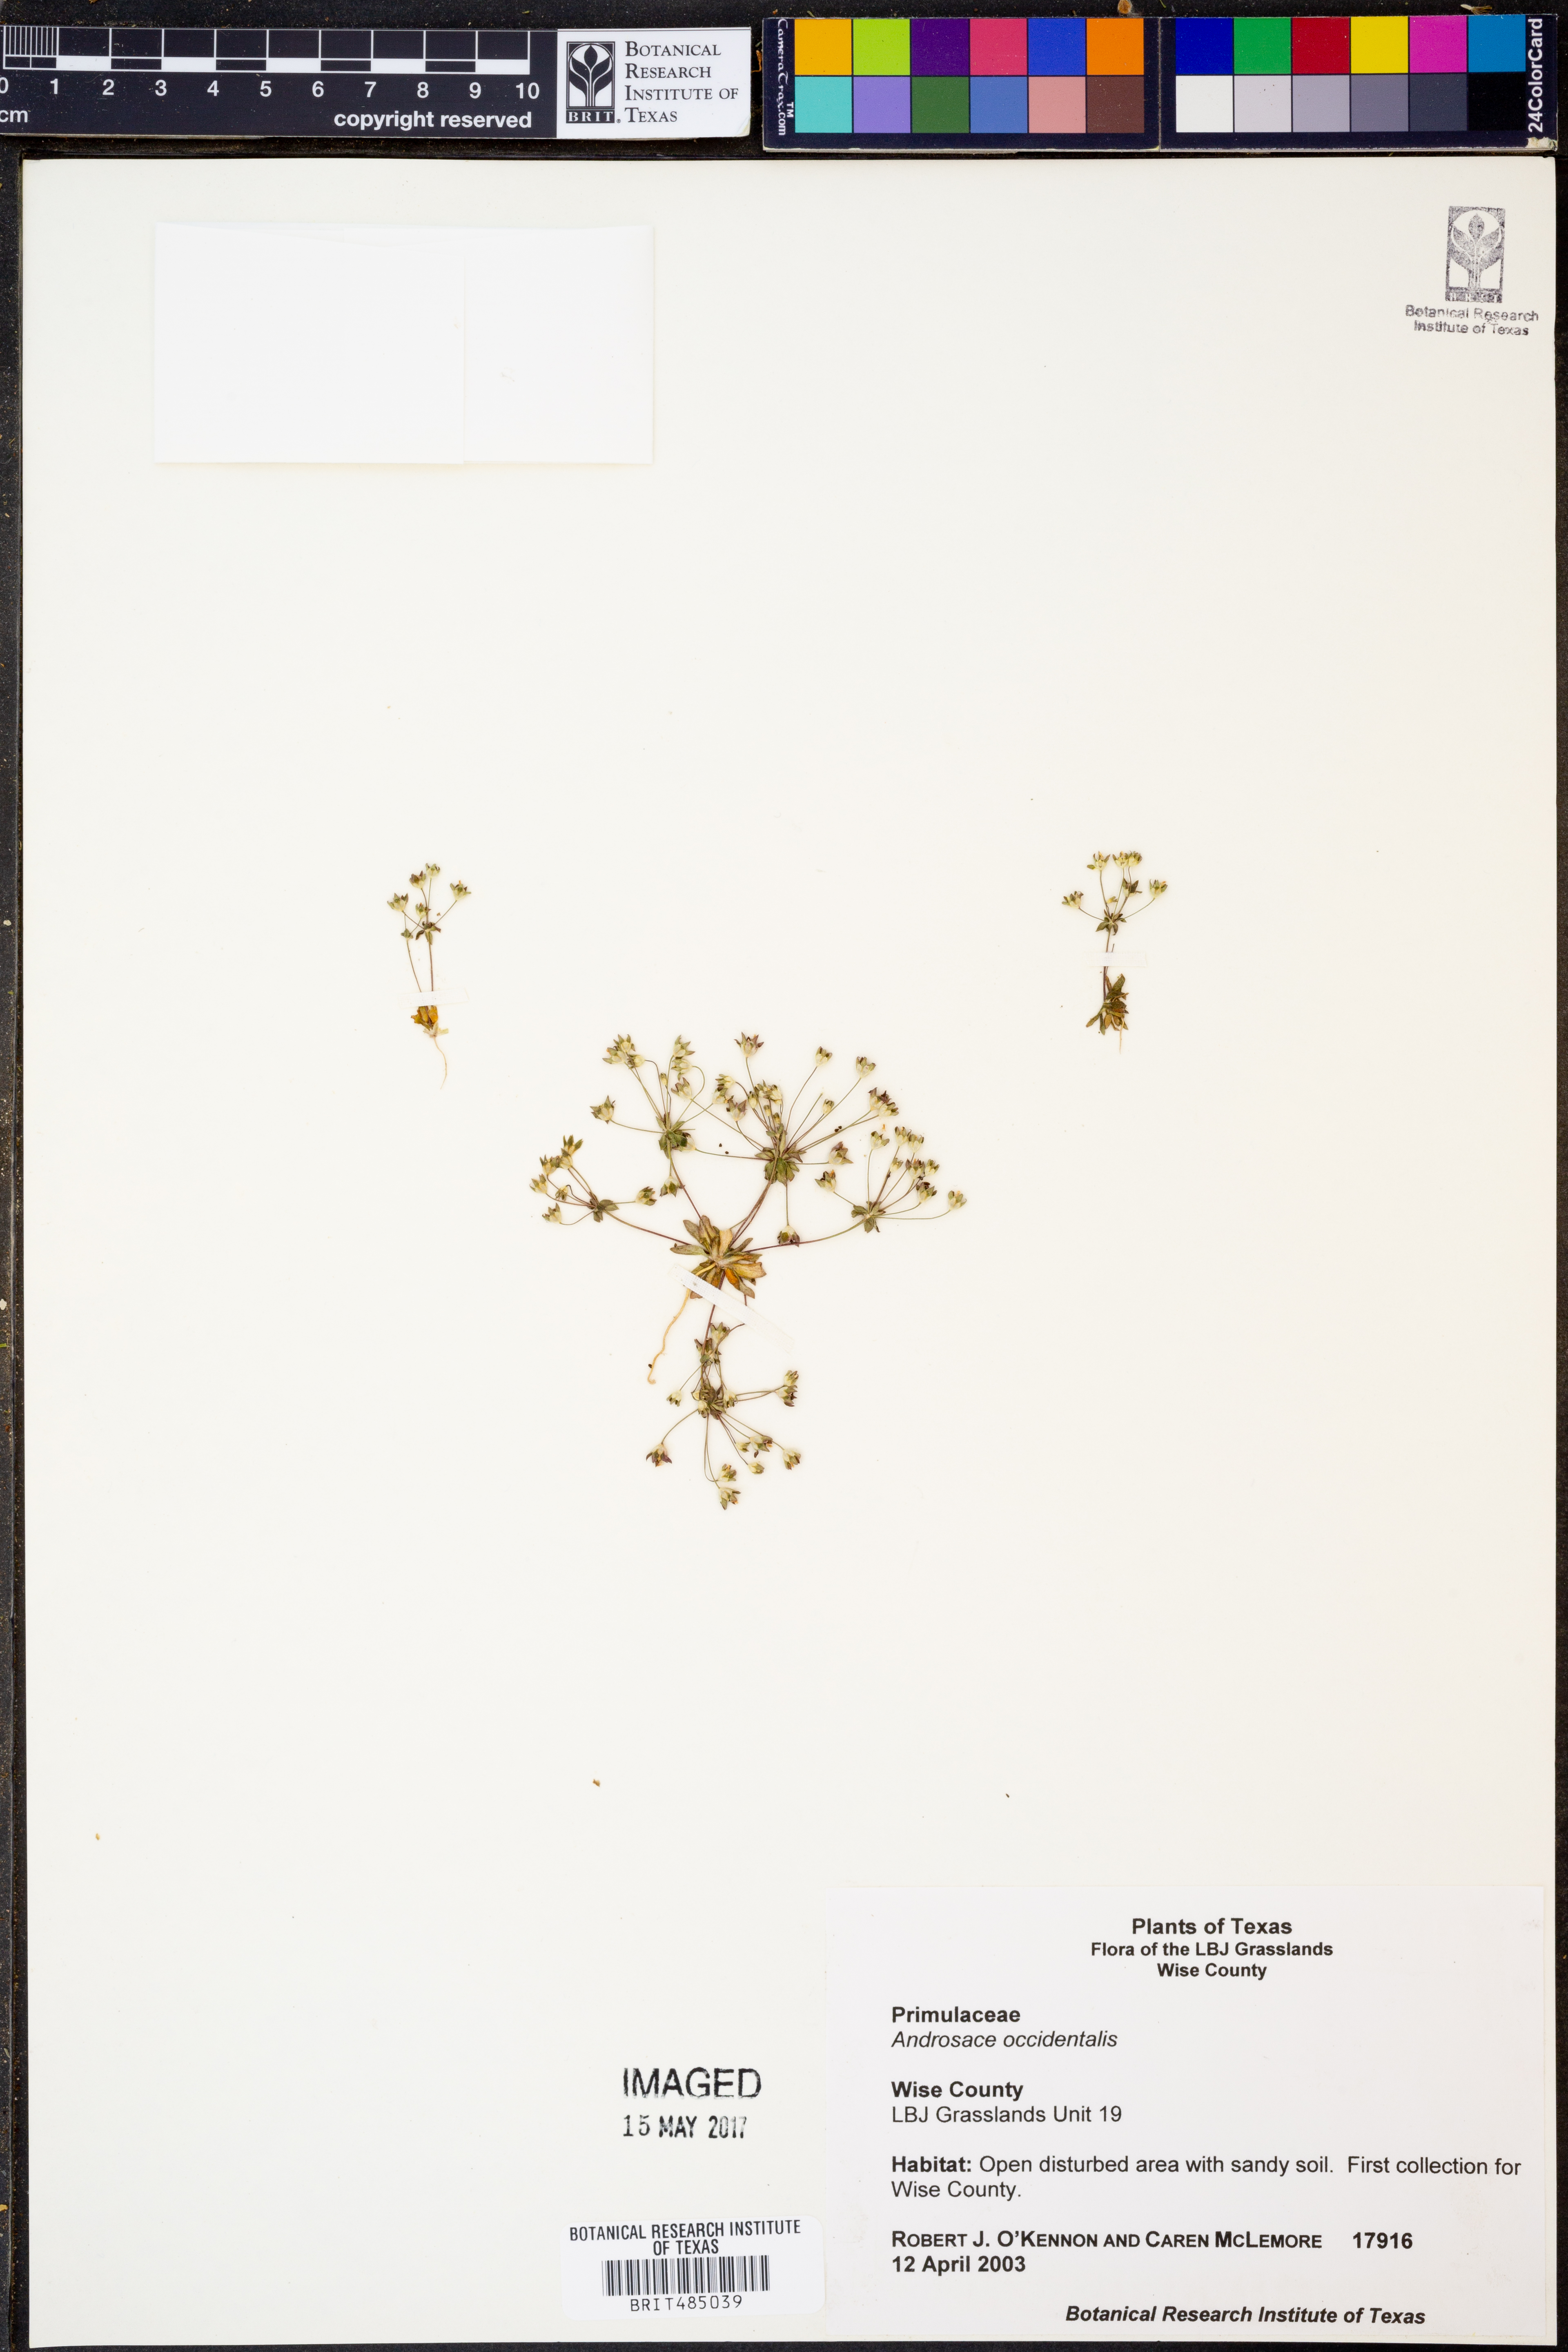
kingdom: Plantae
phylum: Tracheophyta
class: Magnoliopsida
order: Ericales
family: Primulaceae
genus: Androsace
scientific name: Androsace occidentalis
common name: West rock-jasmine
